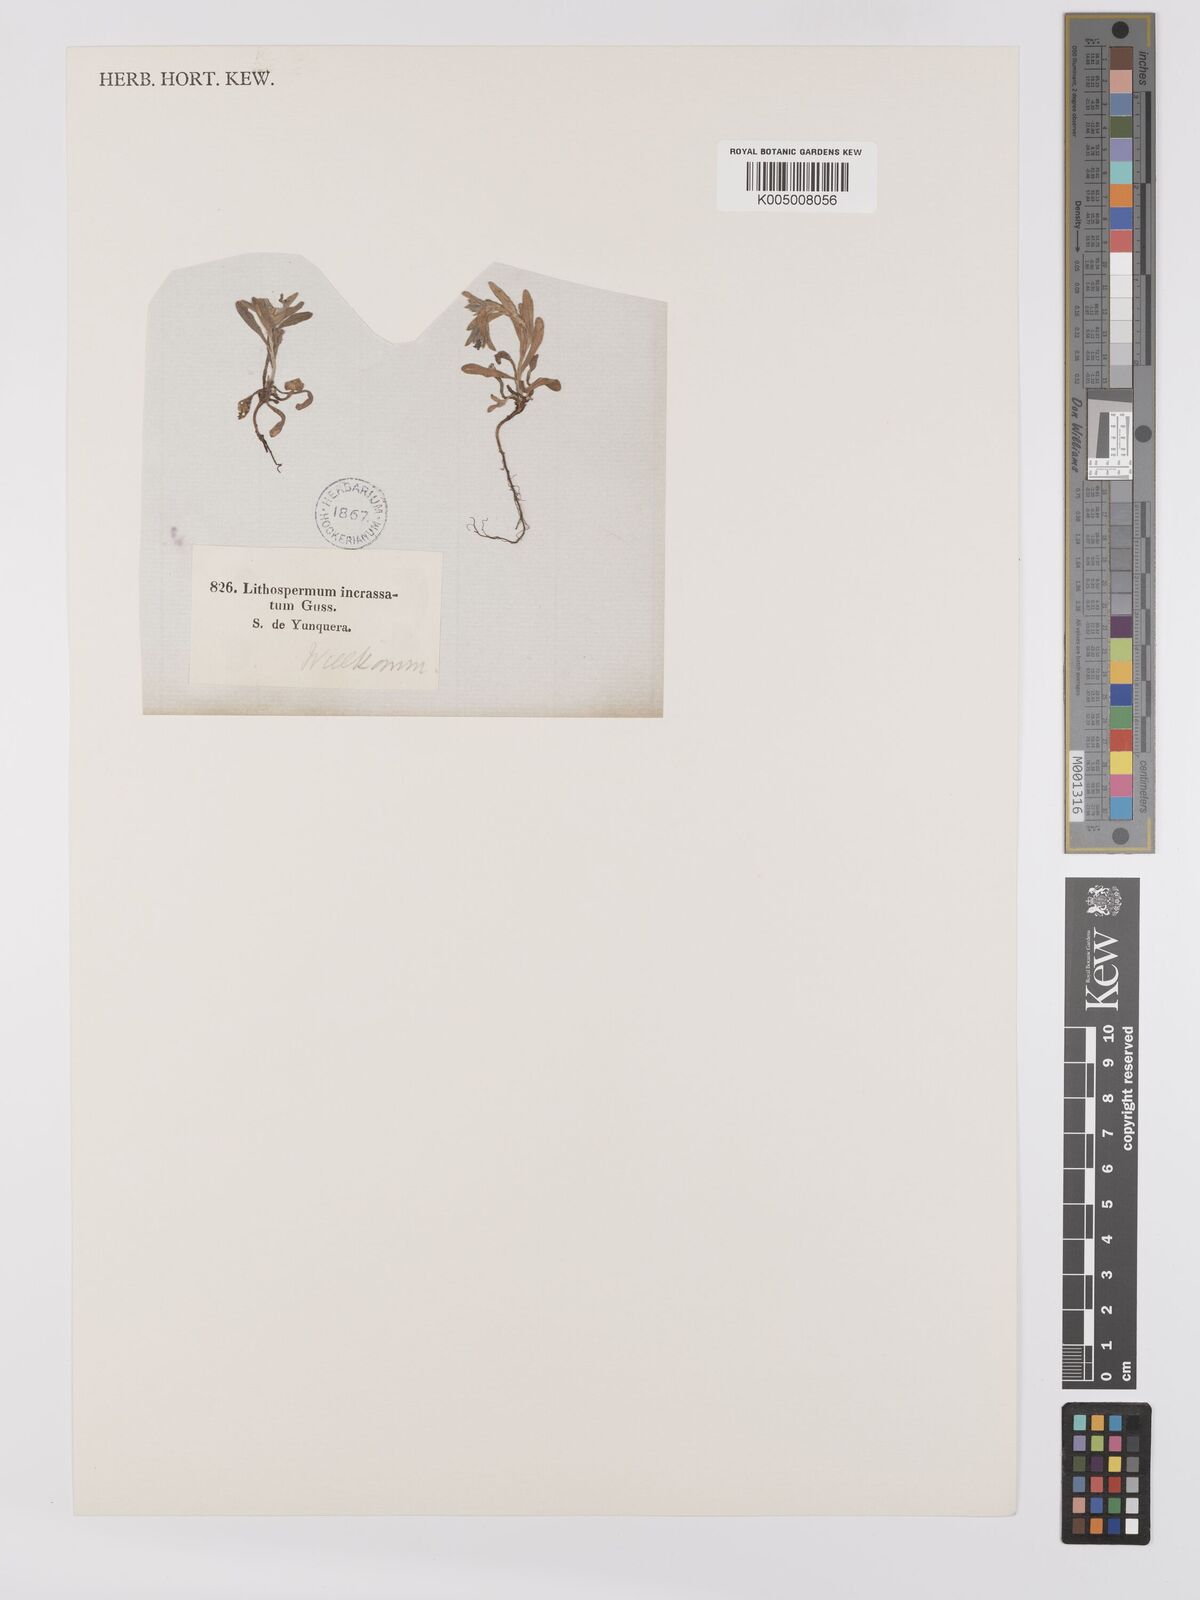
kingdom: Plantae
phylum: Tracheophyta
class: Magnoliopsida
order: Boraginales
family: Boraginaceae
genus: Buglossoides
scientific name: Buglossoides incrassata
